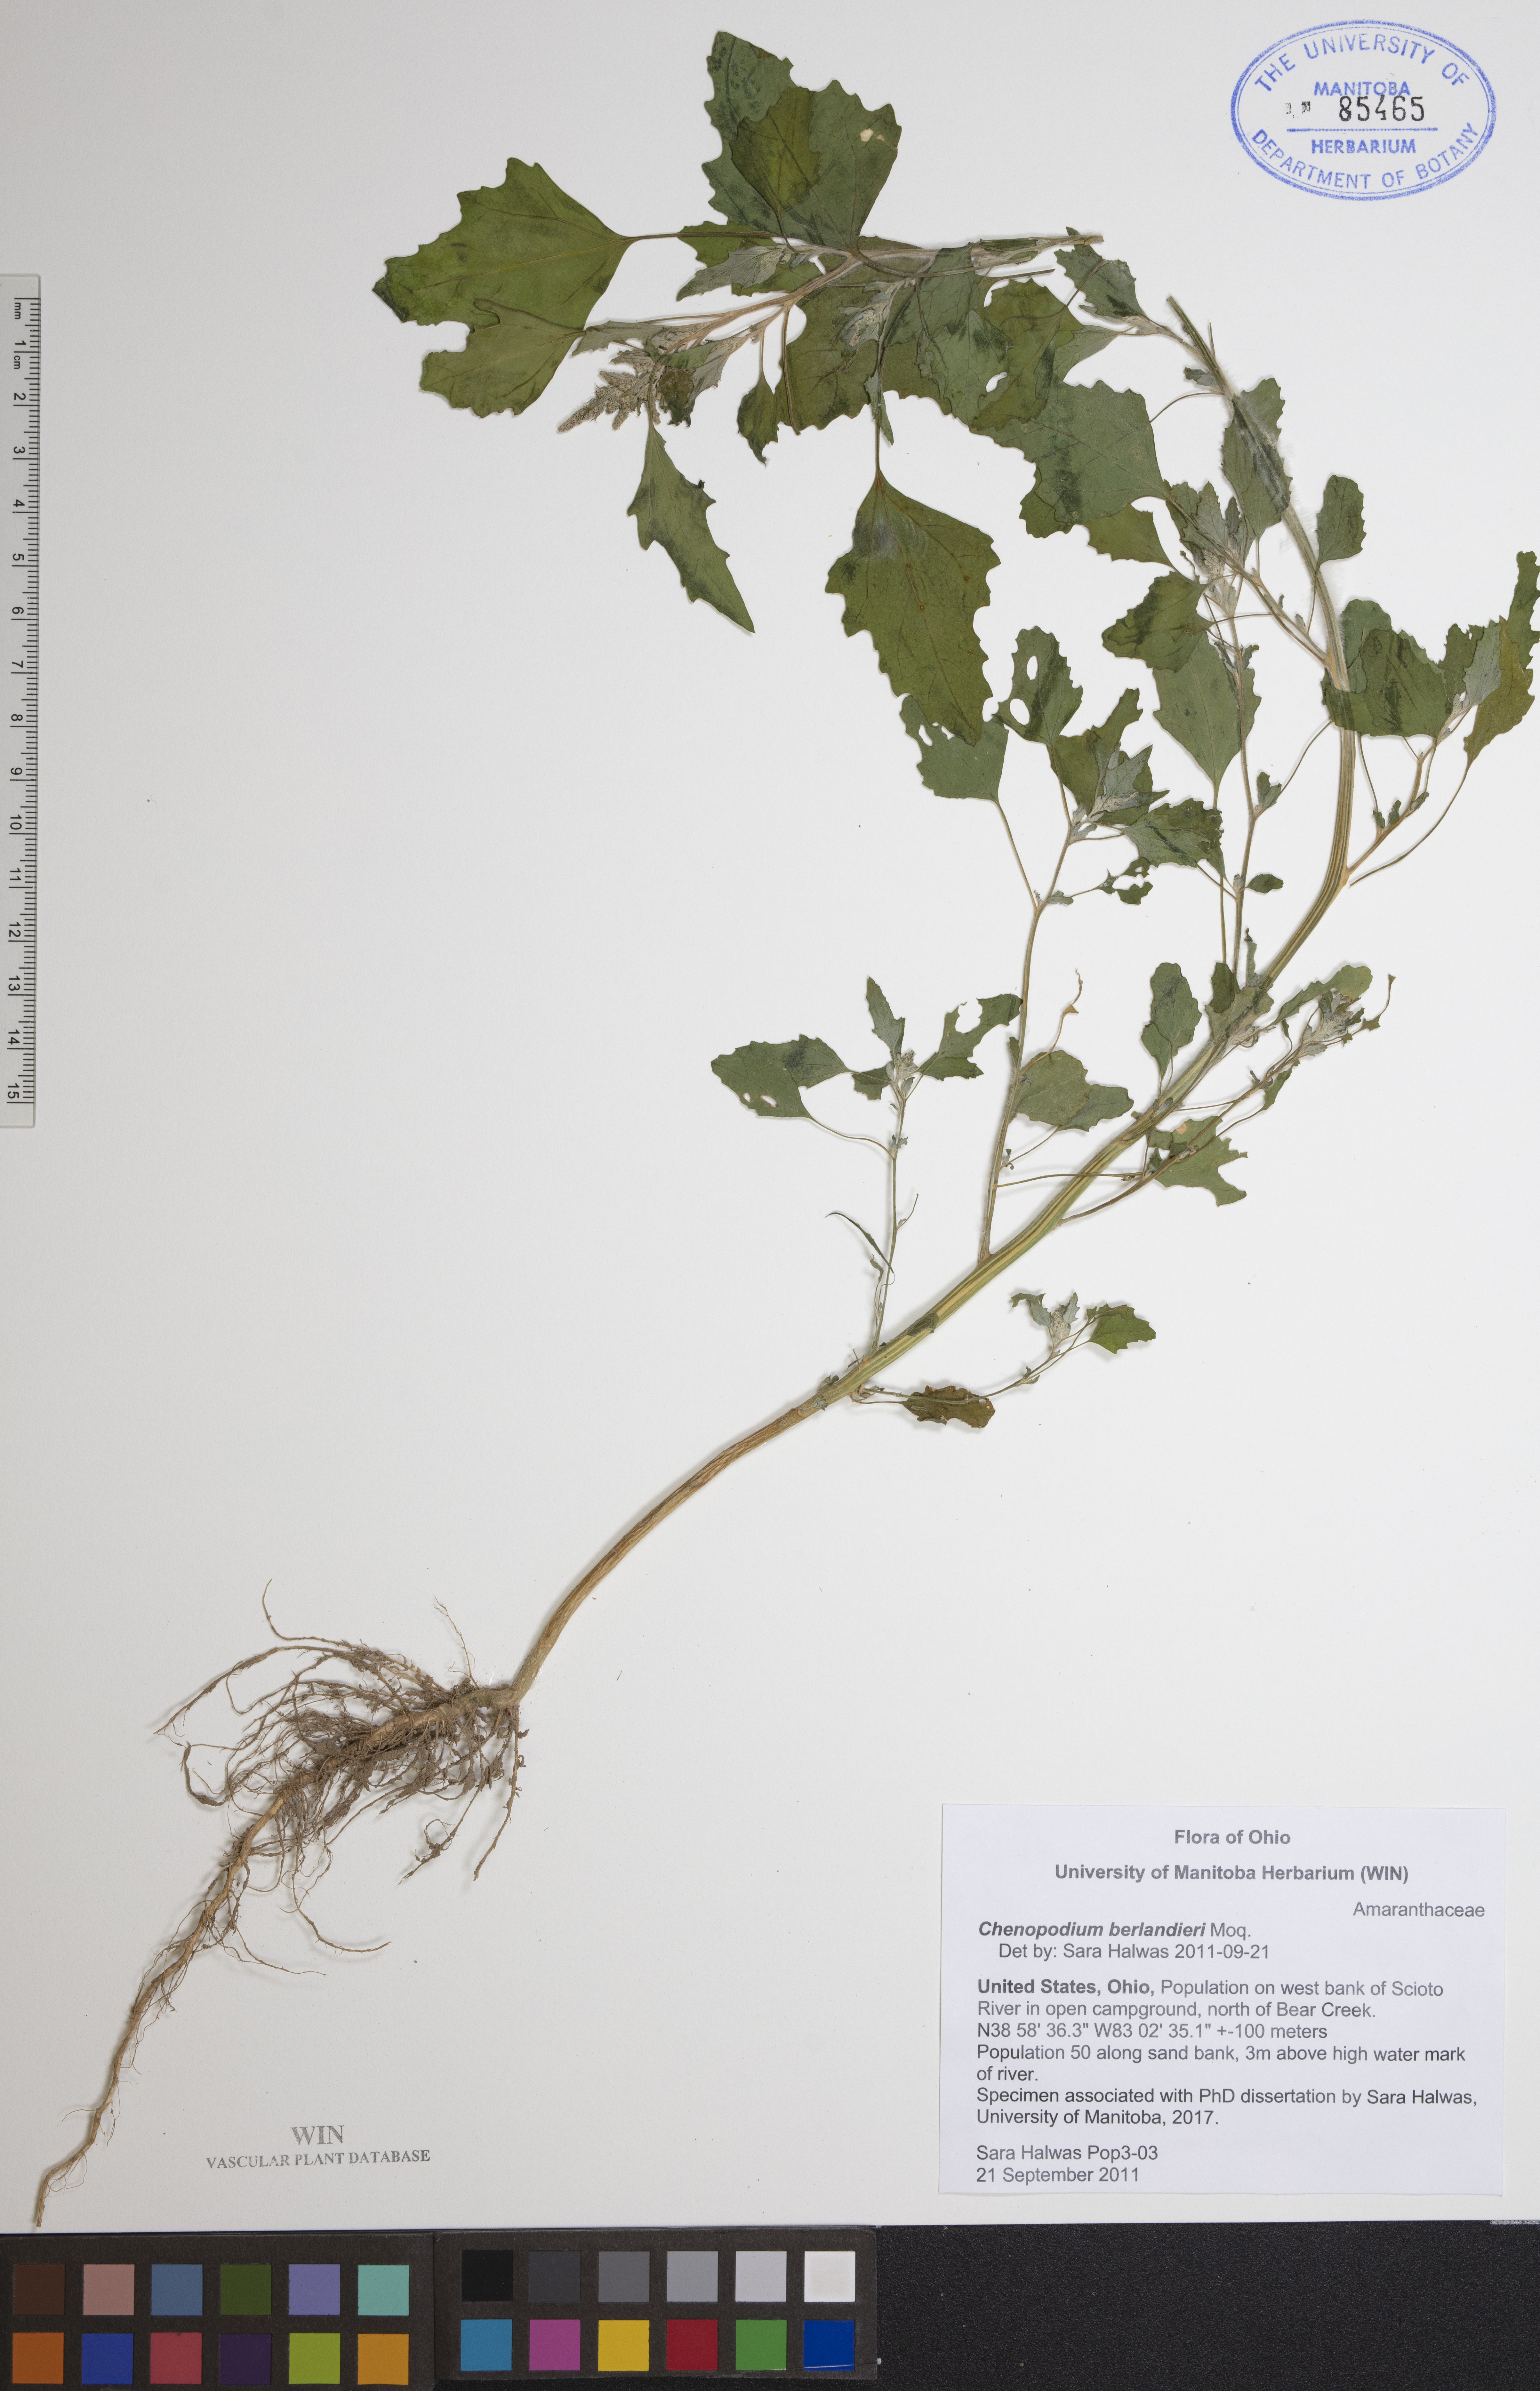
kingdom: Plantae
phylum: Tracheophyta
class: Magnoliopsida
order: Caryophyllales
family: Amaranthaceae
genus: Chenopodium
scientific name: Chenopodium berlandieri
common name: Pit-seed goosefoot
